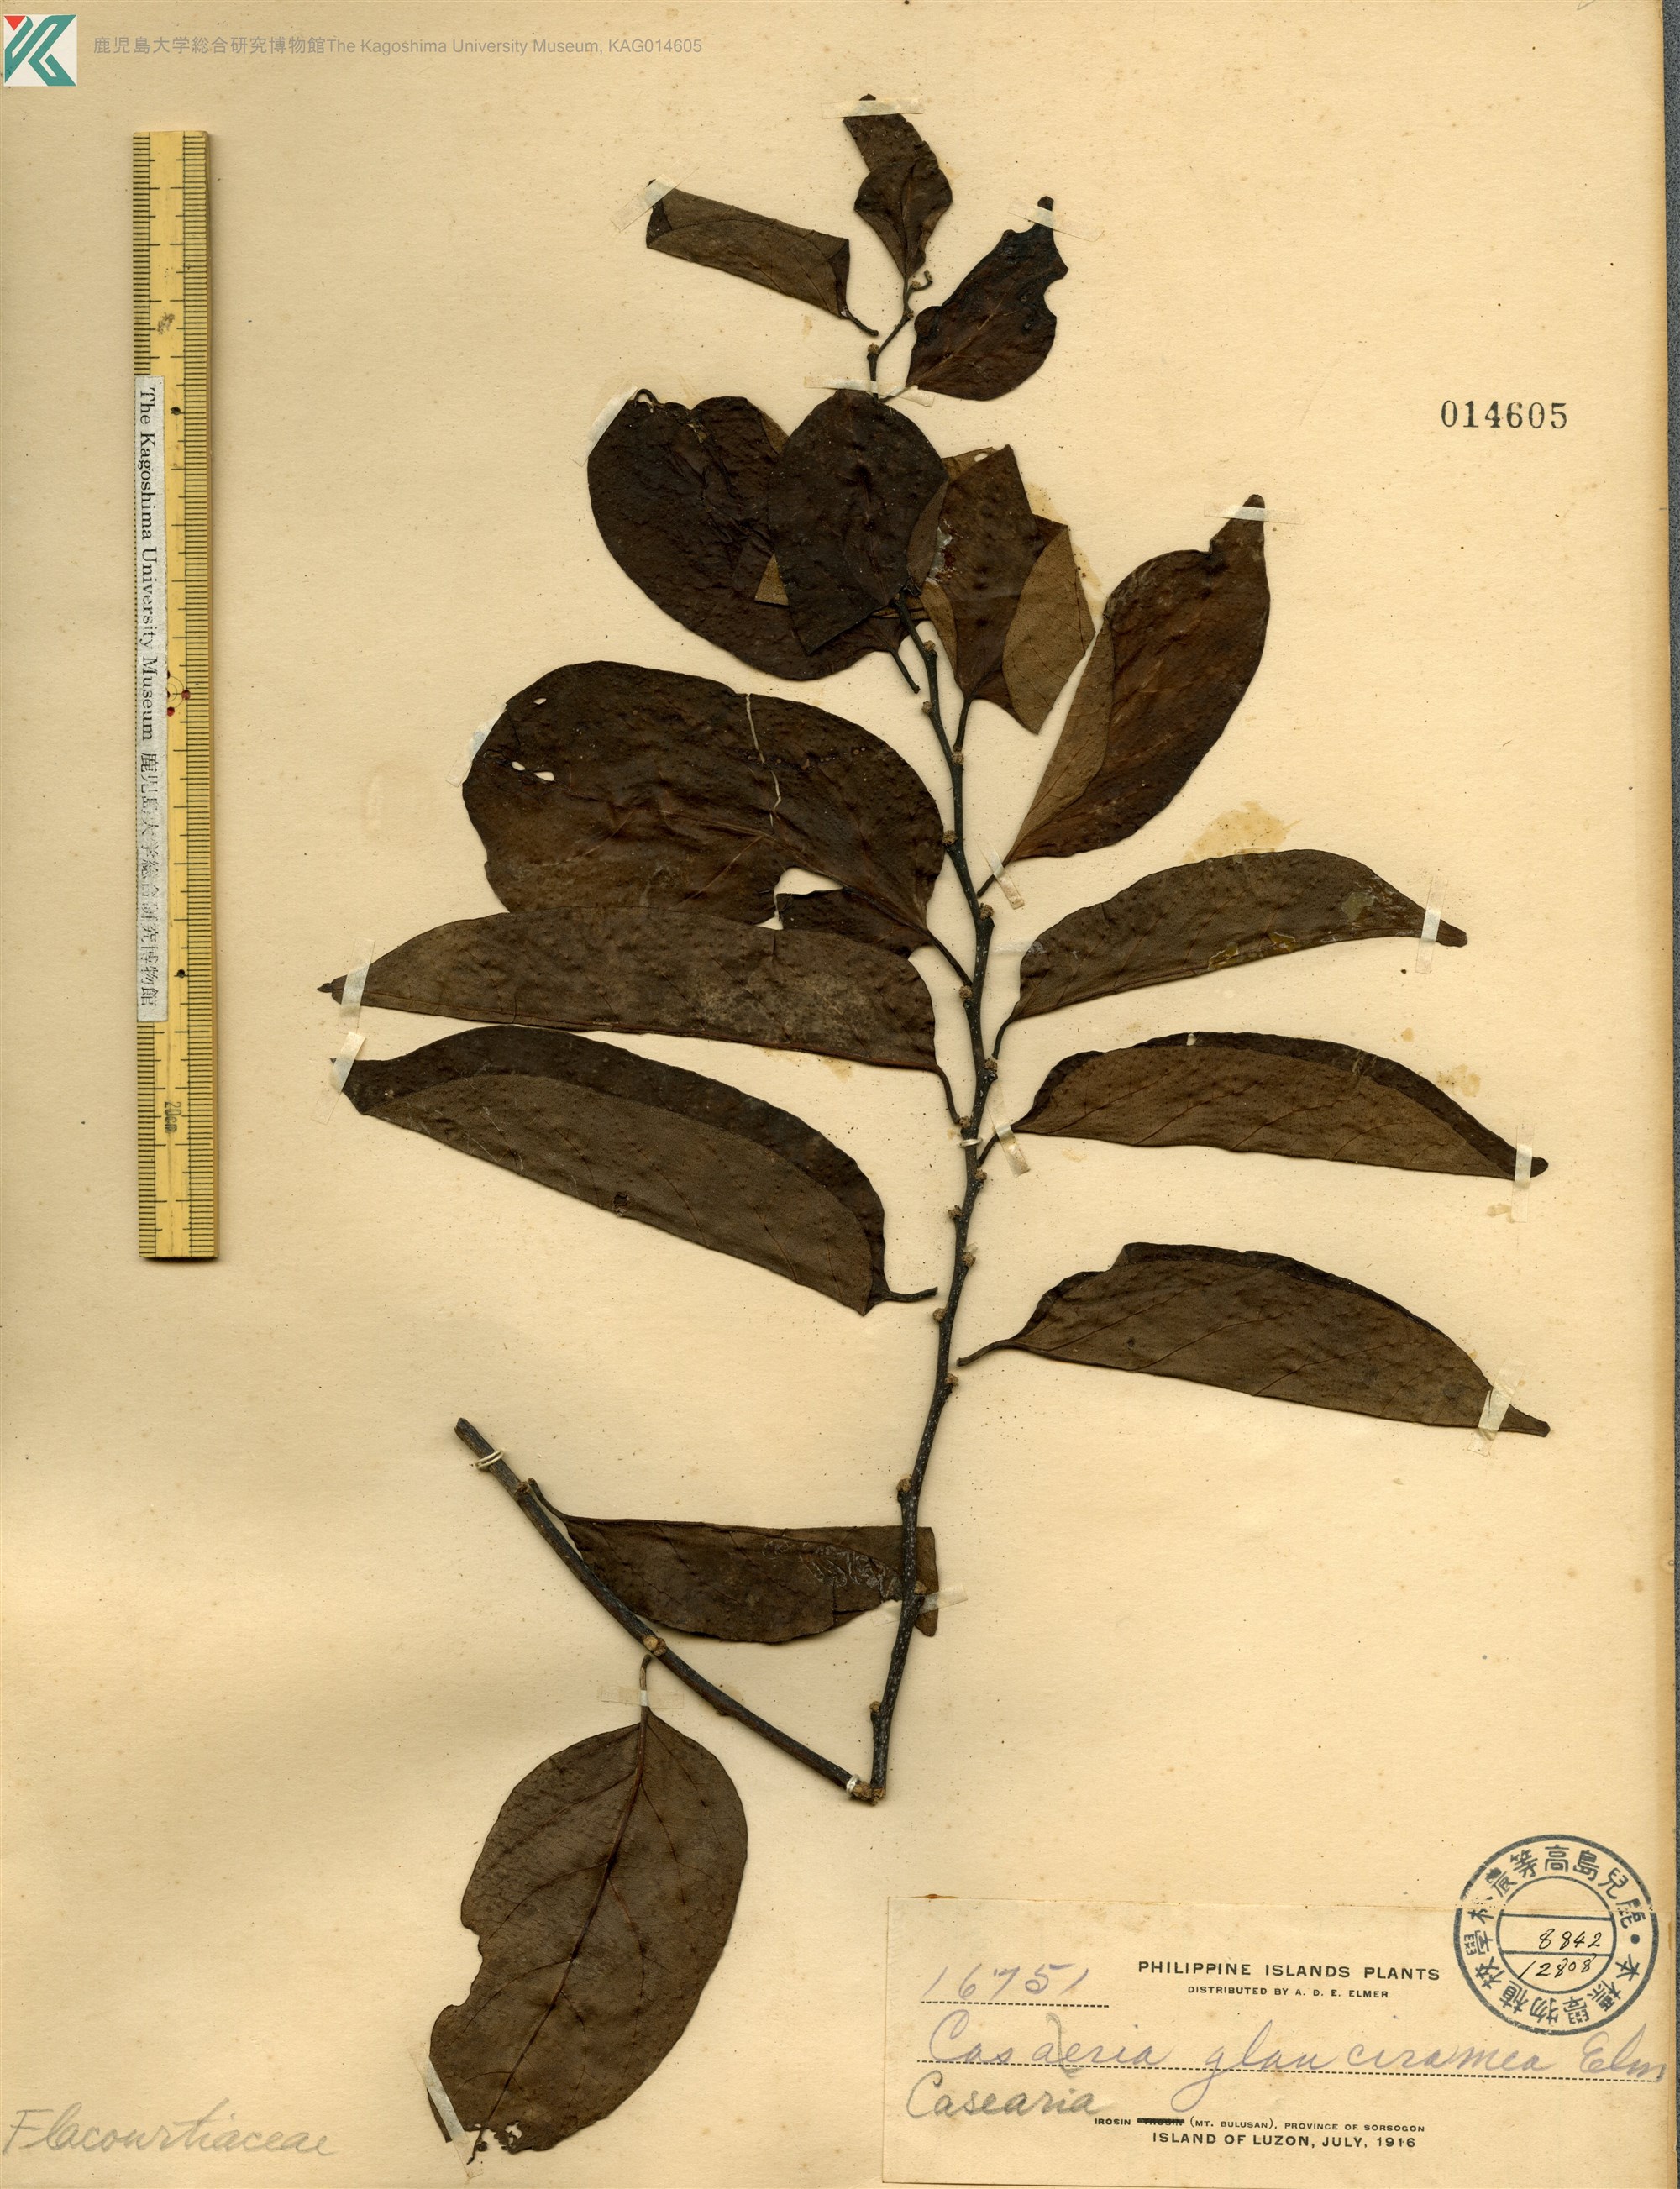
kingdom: Plantae
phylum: Tracheophyta
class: Magnoliopsida
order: Malpighiales
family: Salicaceae
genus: Casearia
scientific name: Casearia fuliginosa
